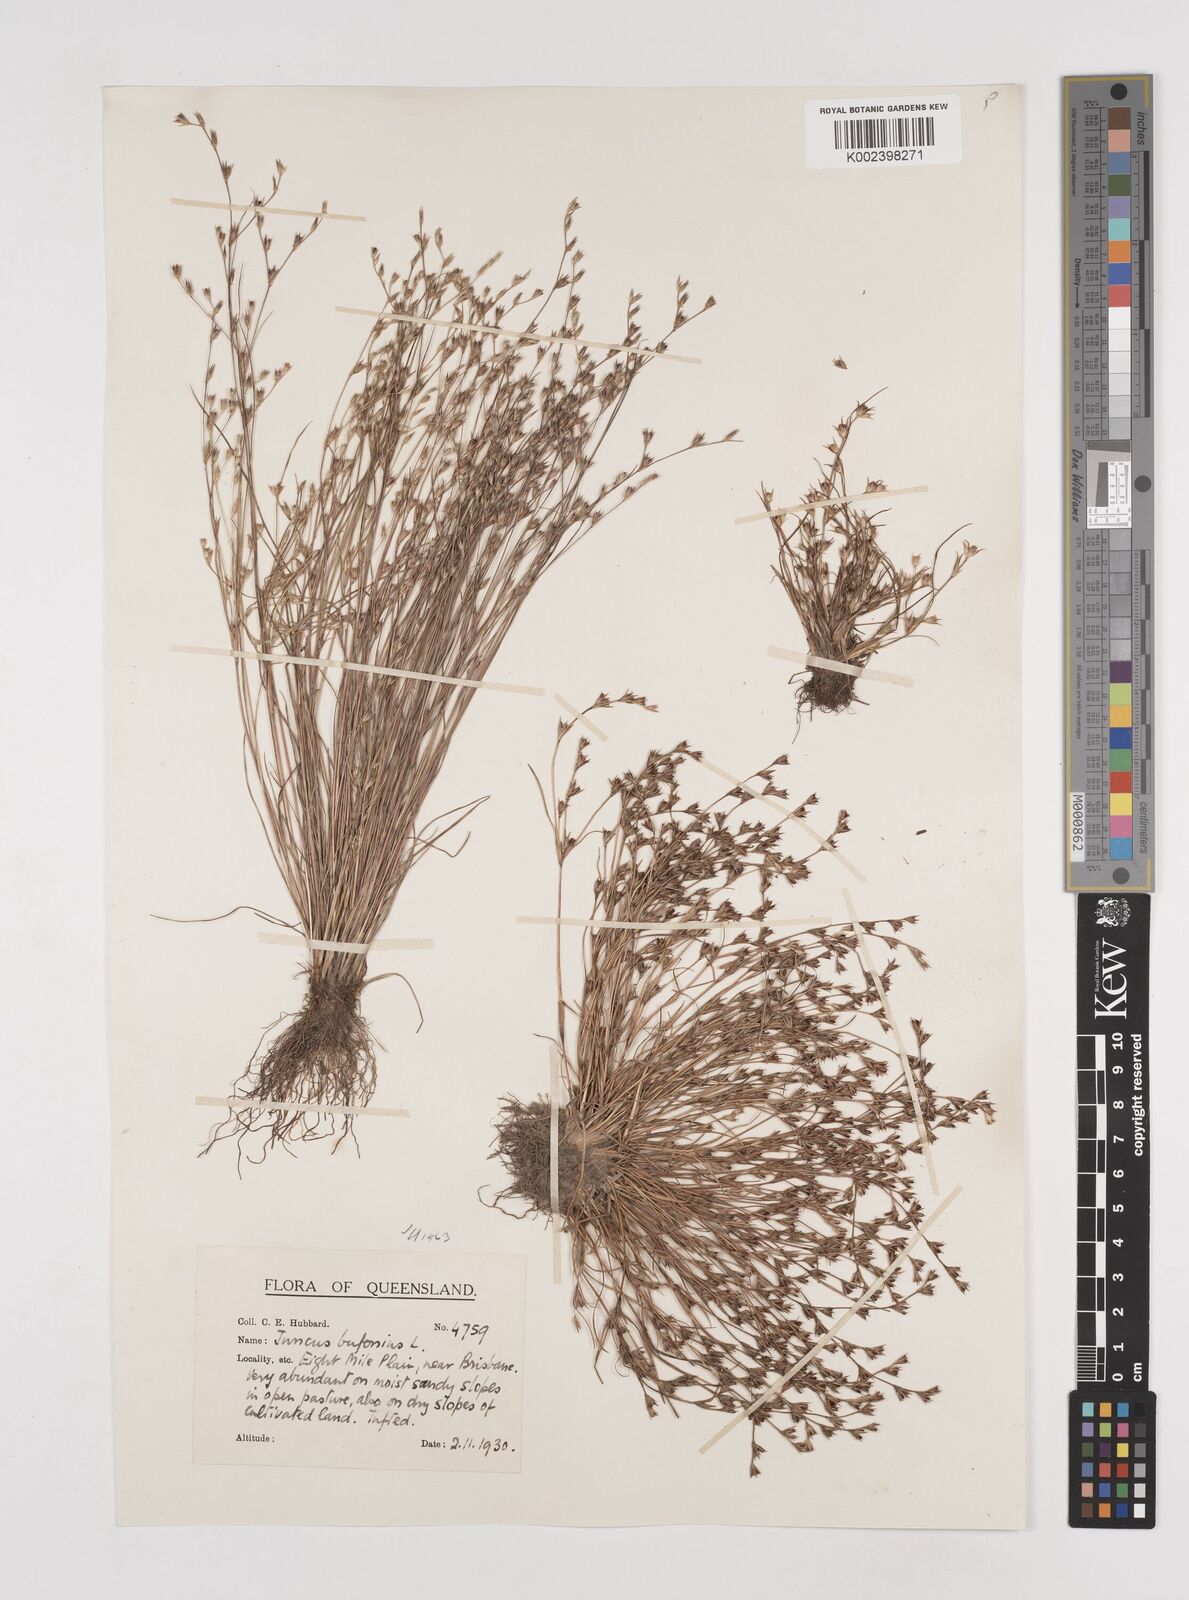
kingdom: Plantae
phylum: Tracheophyta
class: Liliopsida
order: Poales
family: Juncaceae
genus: Juncus
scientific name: Juncus bufonius
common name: Toad rush
